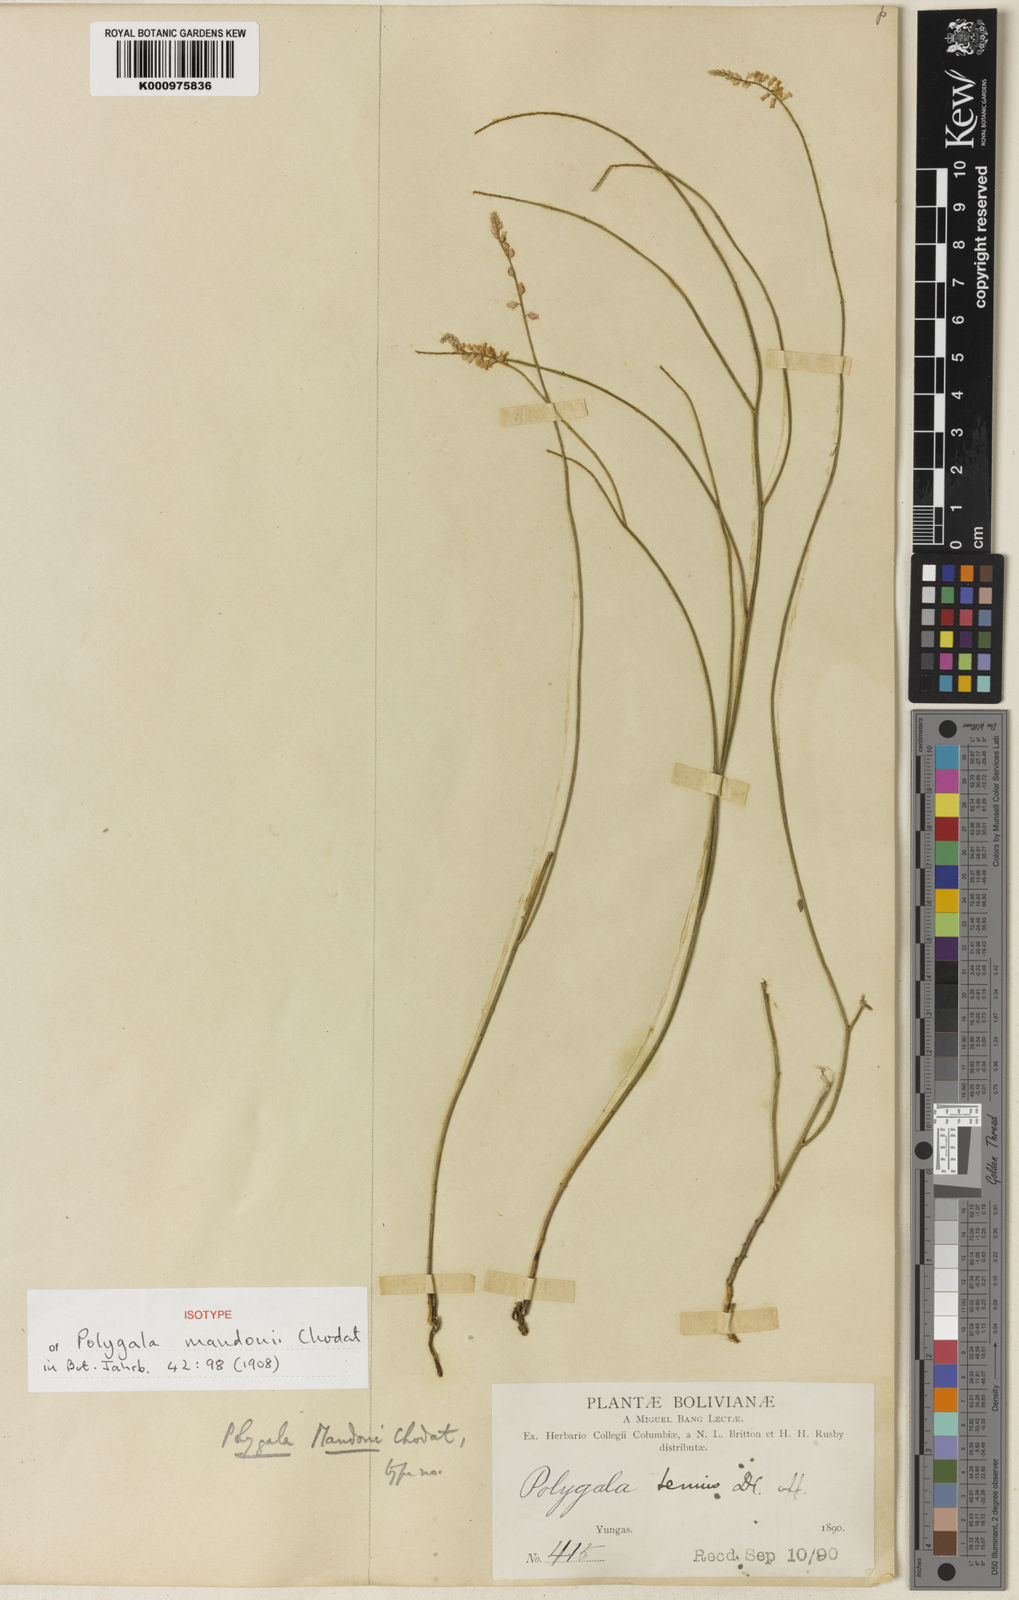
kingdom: Plantae
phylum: Tracheophyta
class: Magnoliopsida
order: Fabales
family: Polygalaceae
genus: Polygala
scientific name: Polygala mandonii
